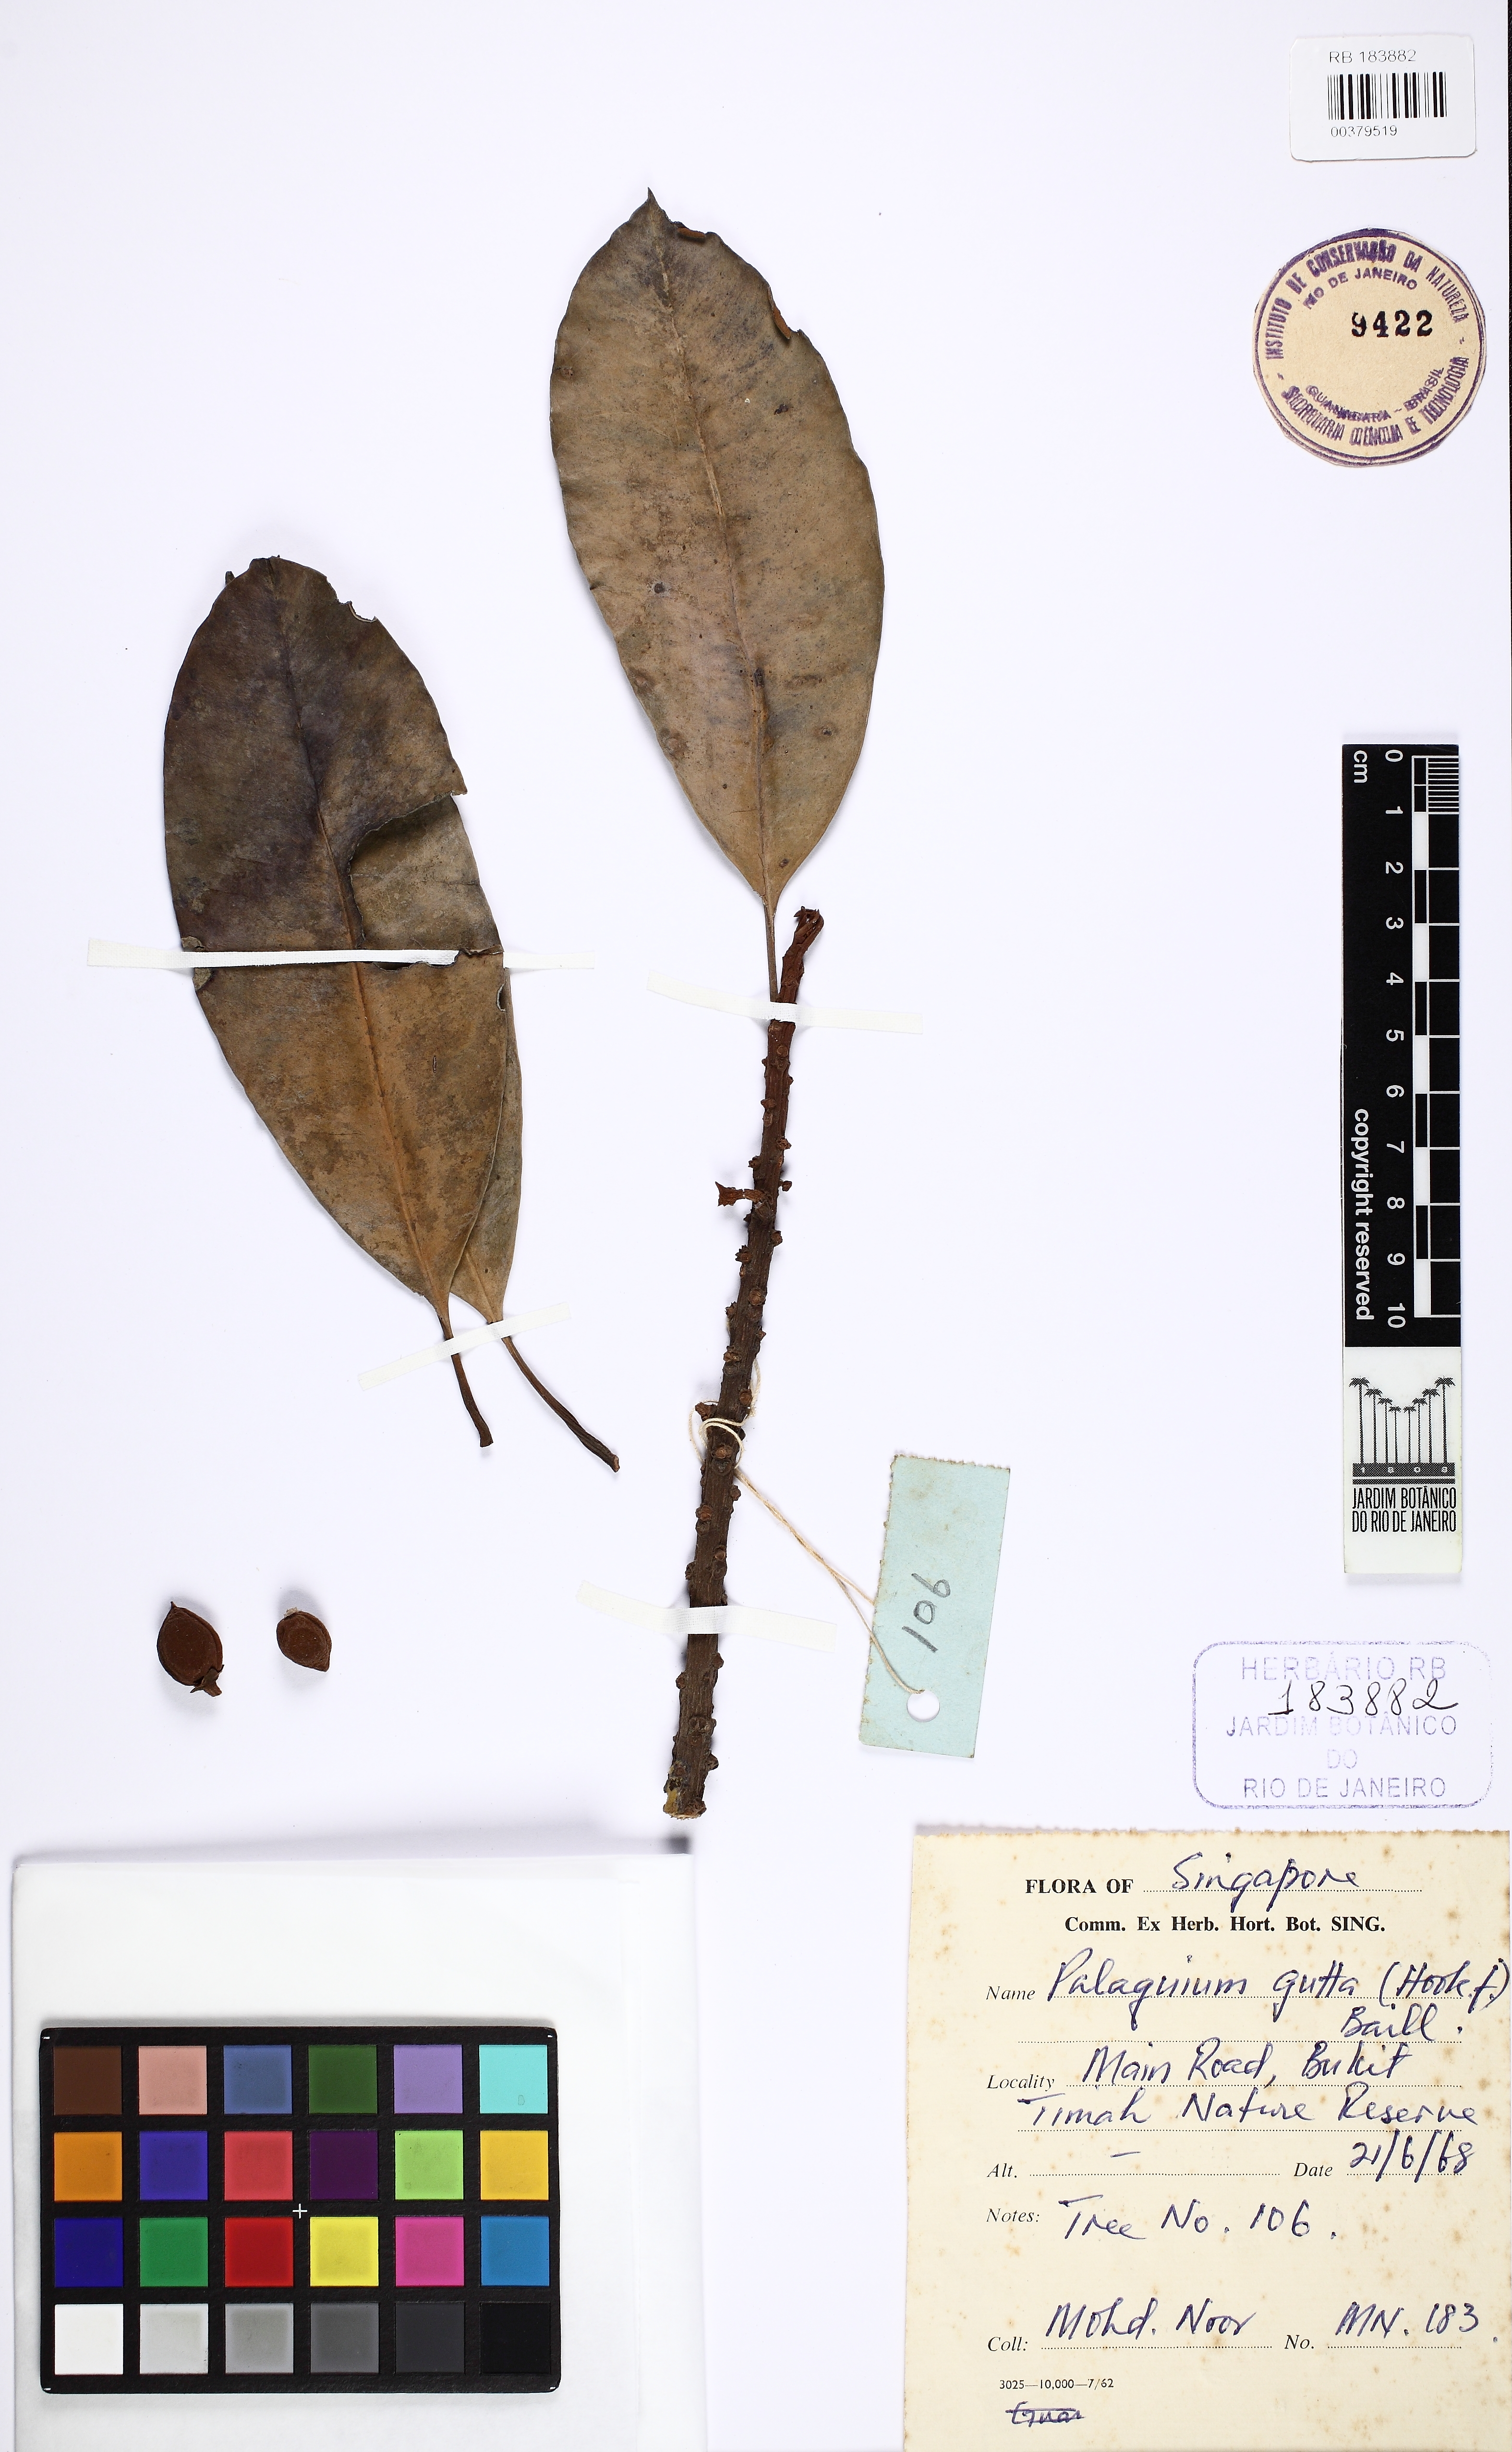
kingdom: Plantae
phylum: Tracheophyta
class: Magnoliopsida
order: Ericales
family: Sapotaceae
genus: Palaquium
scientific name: Palaquium gutta
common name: Gutta-percha-tree
